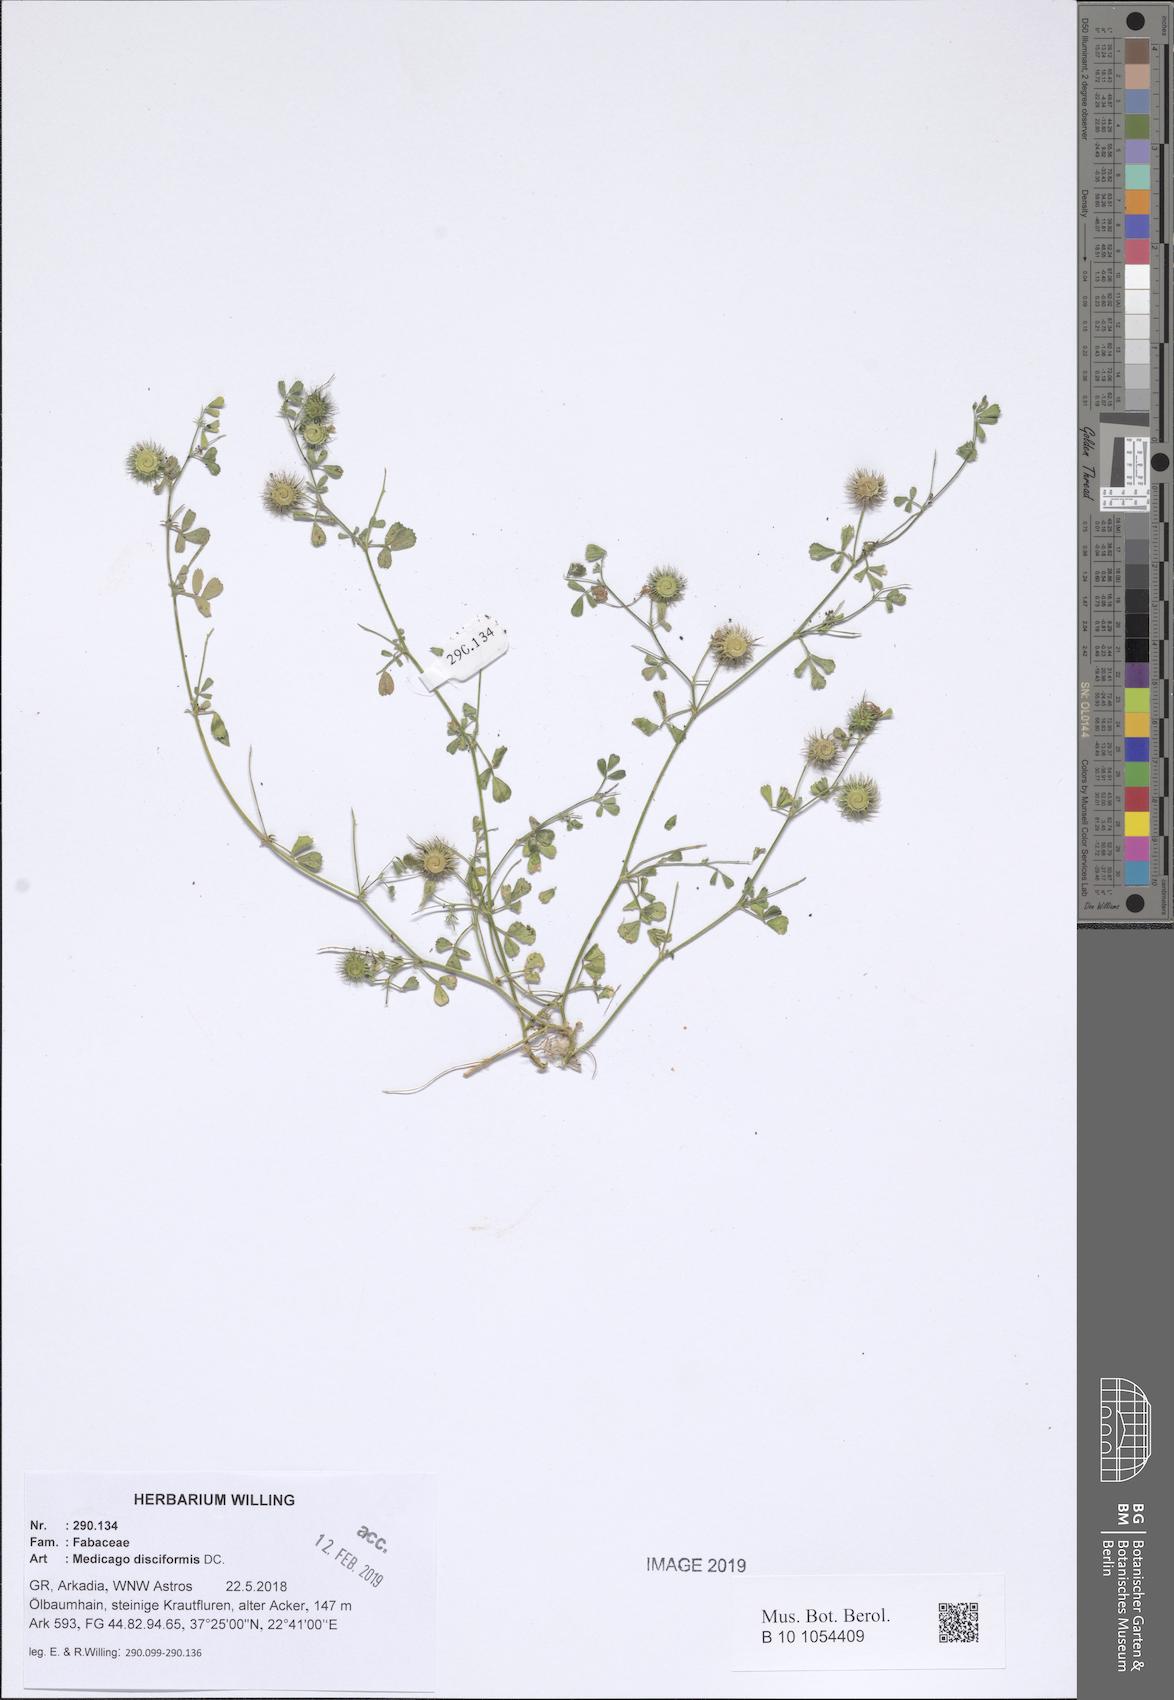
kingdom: Plantae
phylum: Tracheophyta
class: Magnoliopsida
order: Fabales
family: Fabaceae
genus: Medicago
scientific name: Medicago disciformis
